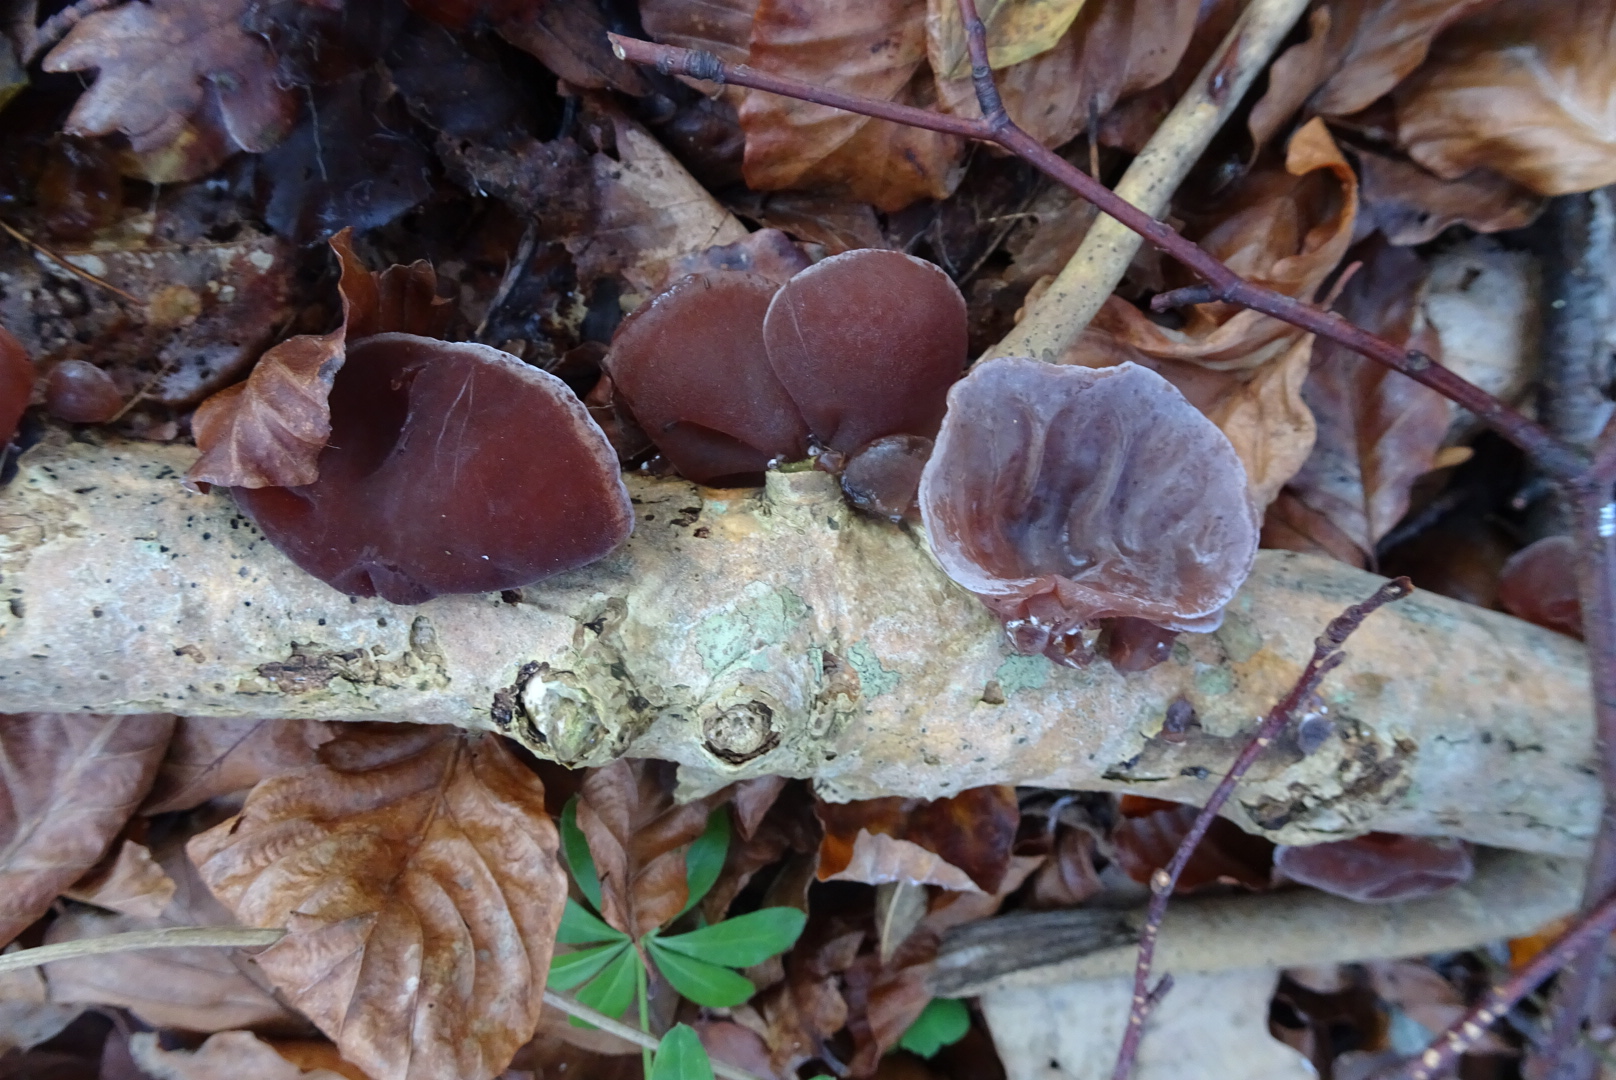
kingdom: Fungi
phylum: Basidiomycota
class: Agaricomycetes
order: Auriculariales
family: Auriculariaceae
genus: Auricularia
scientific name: Auricularia auricula-judae
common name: almindelig judasøre
